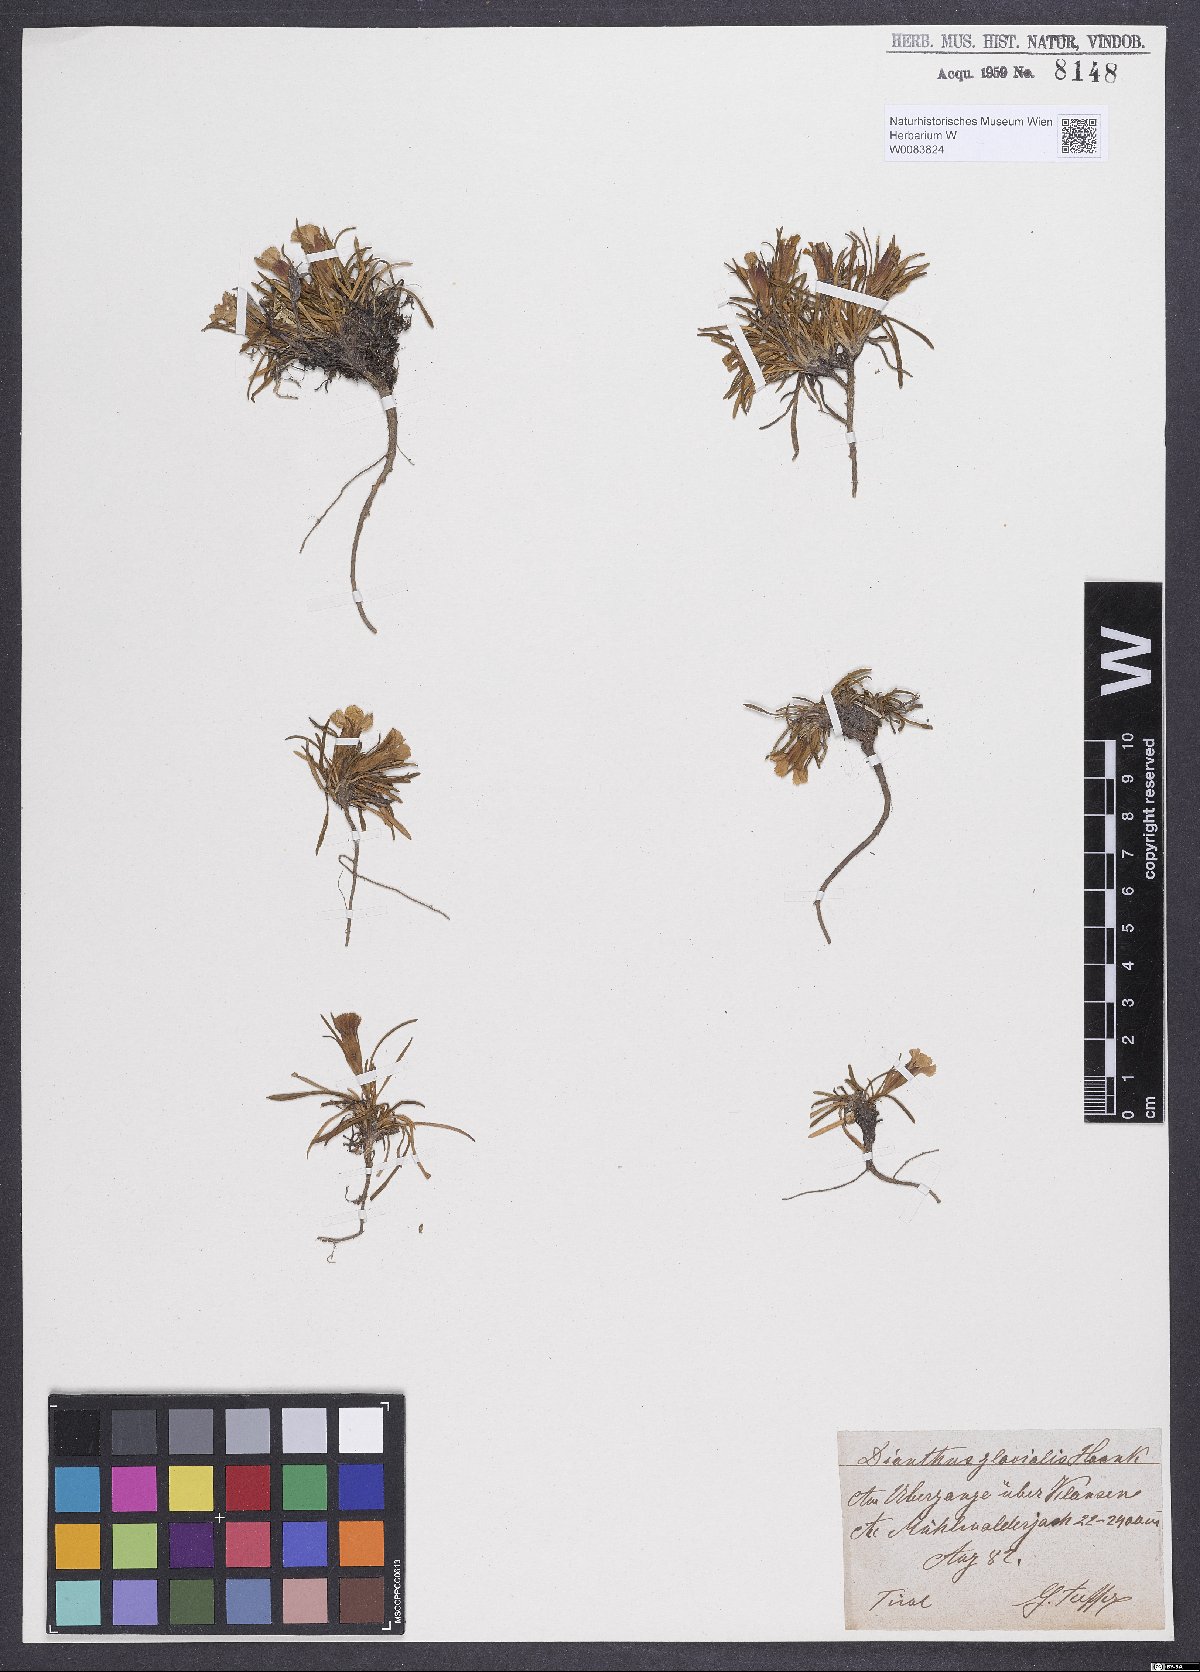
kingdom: Plantae
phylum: Tracheophyta
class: Magnoliopsida
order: Caryophyllales
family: Caryophyllaceae
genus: Dianthus
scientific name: Dianthus glacialis
